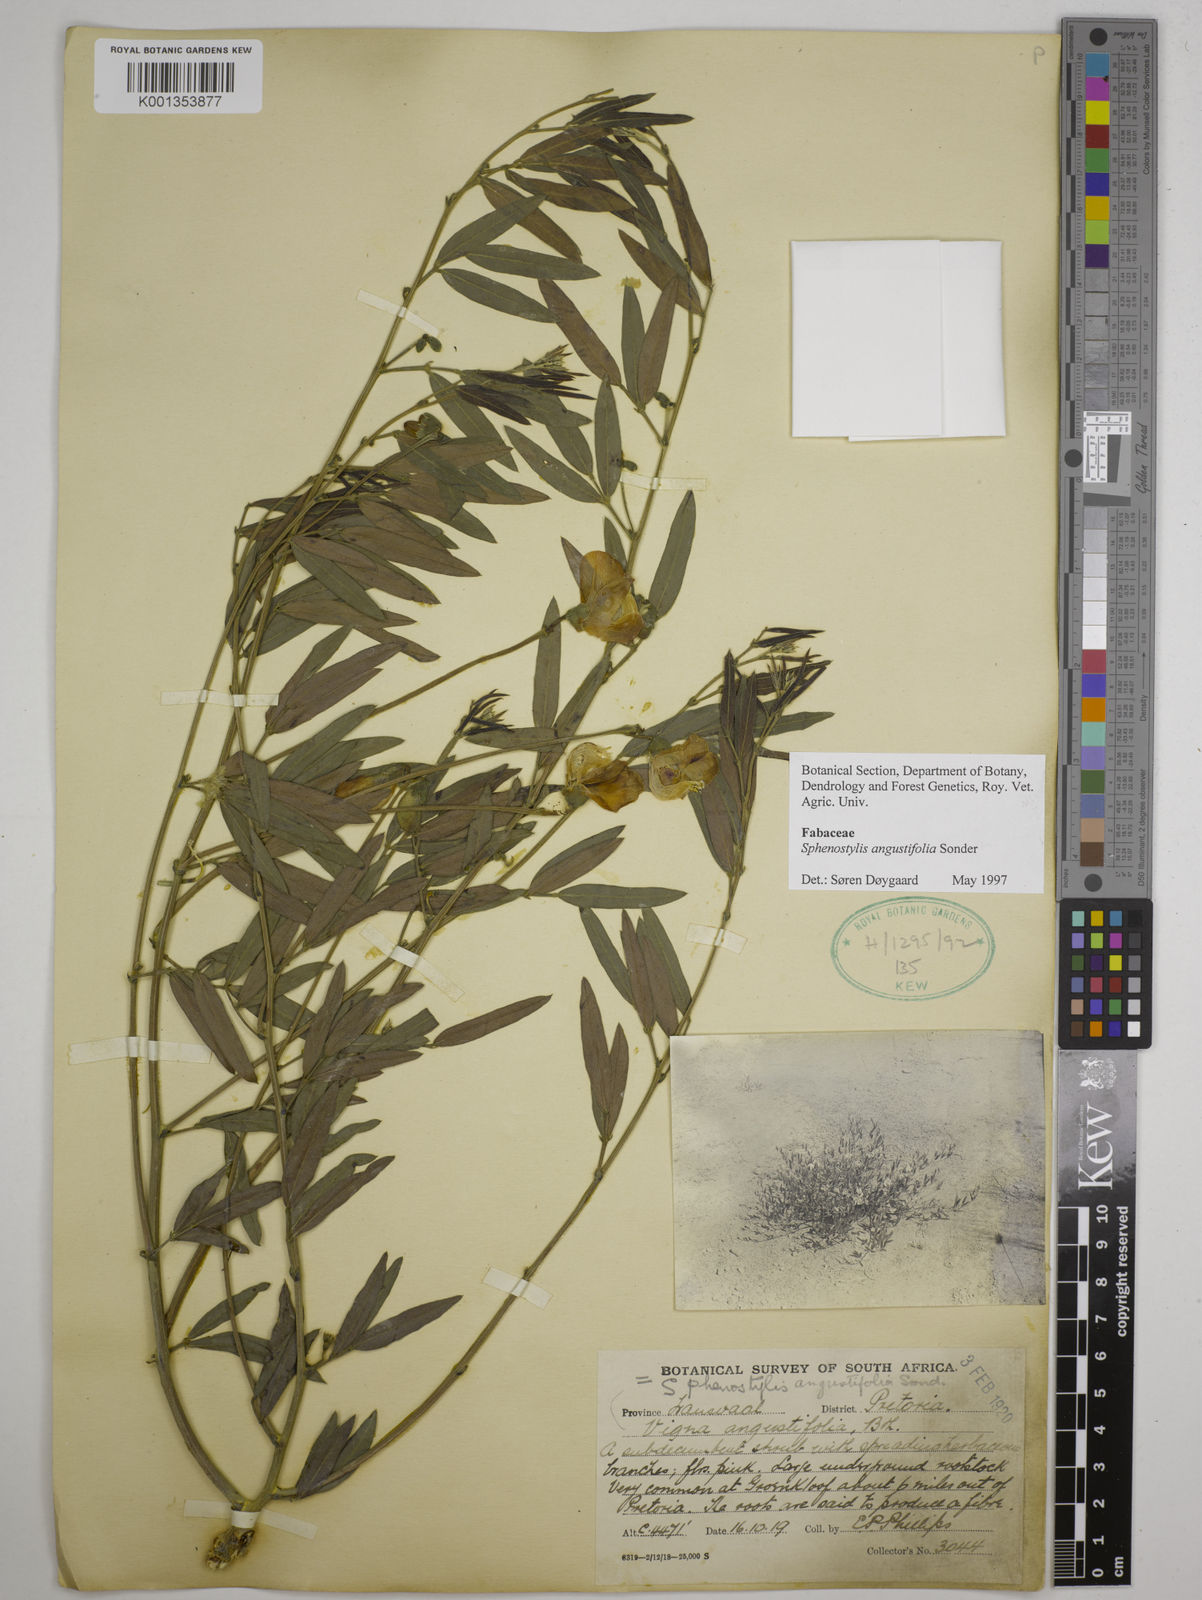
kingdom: Plantae
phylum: Tracheophyta
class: Magnoliopsida
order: Fabales
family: Fabaceae
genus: Sphenostylis
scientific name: Sphenostylis angustifolia
